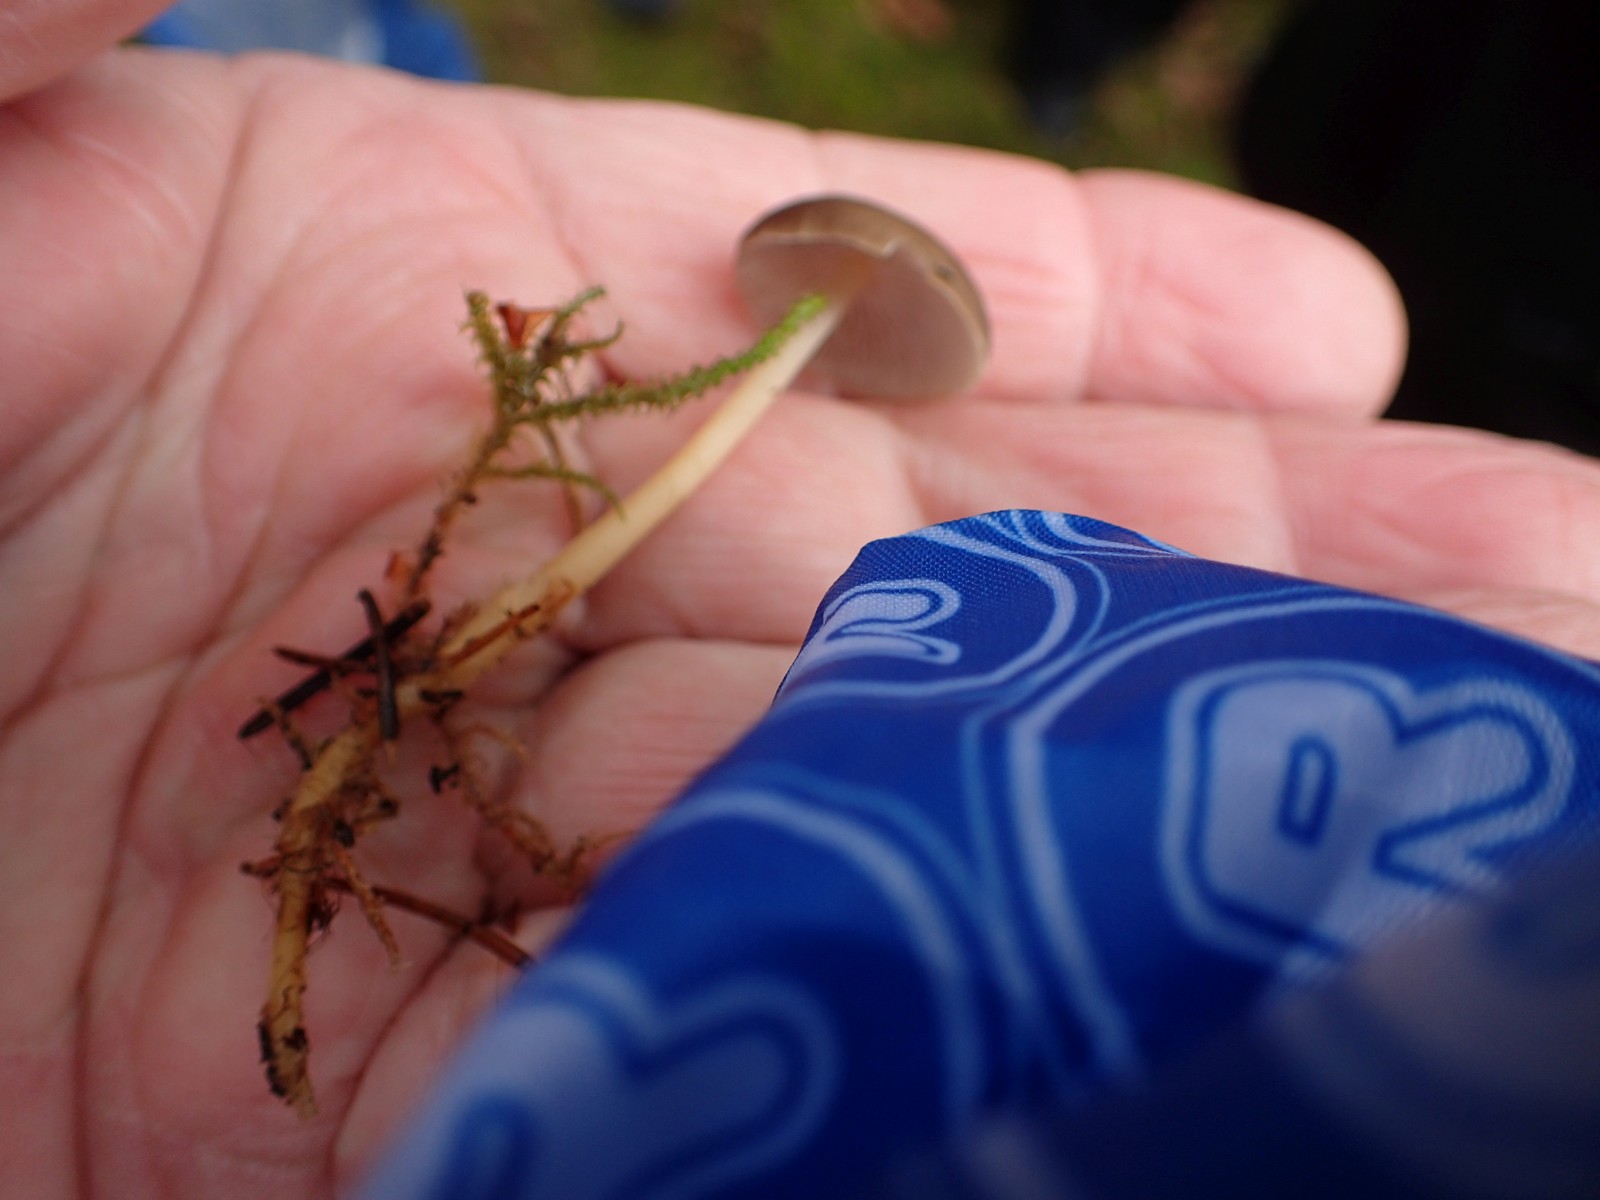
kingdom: Fungi
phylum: Basidiomycota
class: Agaricomycetes
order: Agaricales
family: Physalacriaceae
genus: Strobilurus
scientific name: Strobilurus esculentus
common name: gran-koglehat
